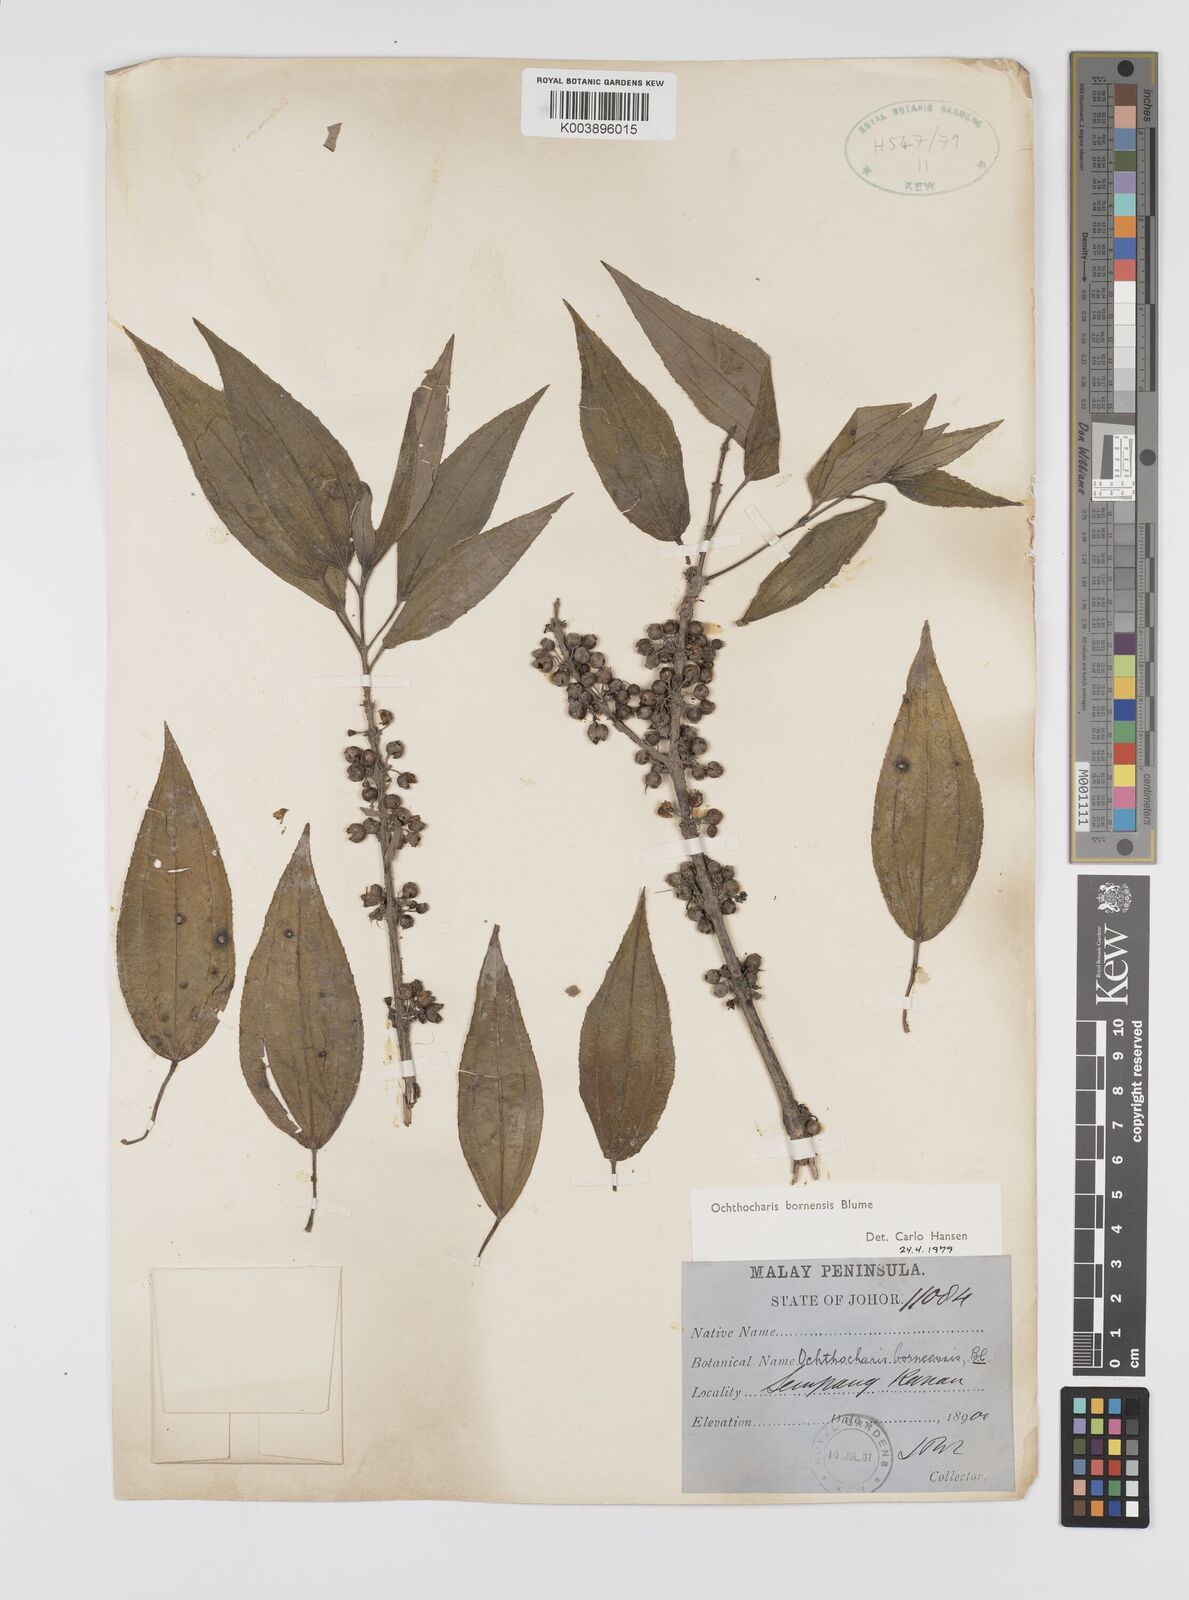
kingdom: Plantae
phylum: Tracheophyta
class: Magnoliopsida
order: Myrtales
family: Melastomataceae
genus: Ochthocharis
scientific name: Ochthocharis bornensis
